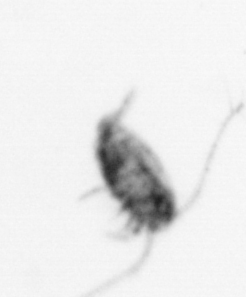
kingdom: Animalia
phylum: Arthropoda
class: Copepoda
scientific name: Copepoda
